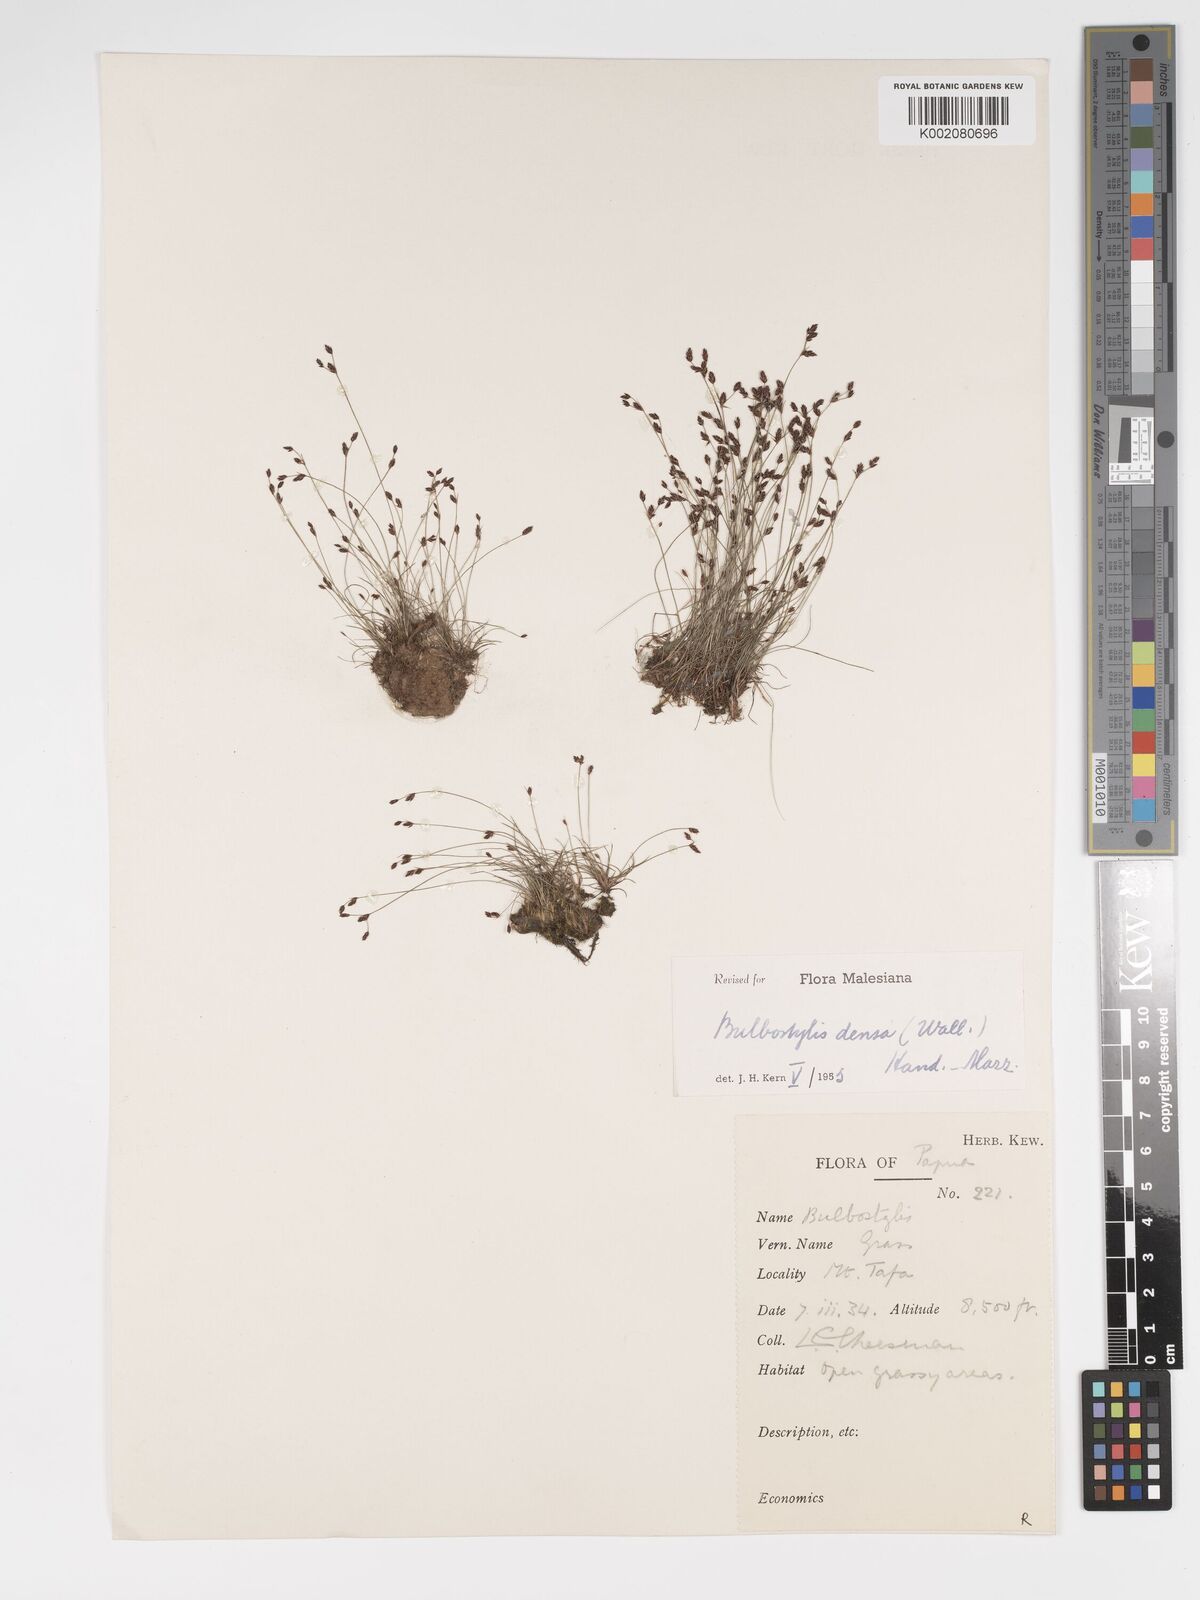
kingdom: Plantae
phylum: Tracheophyta
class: Liliopsida
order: Poales
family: Cyperaceae
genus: Bulbostylis
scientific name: Bulbostylis densa
